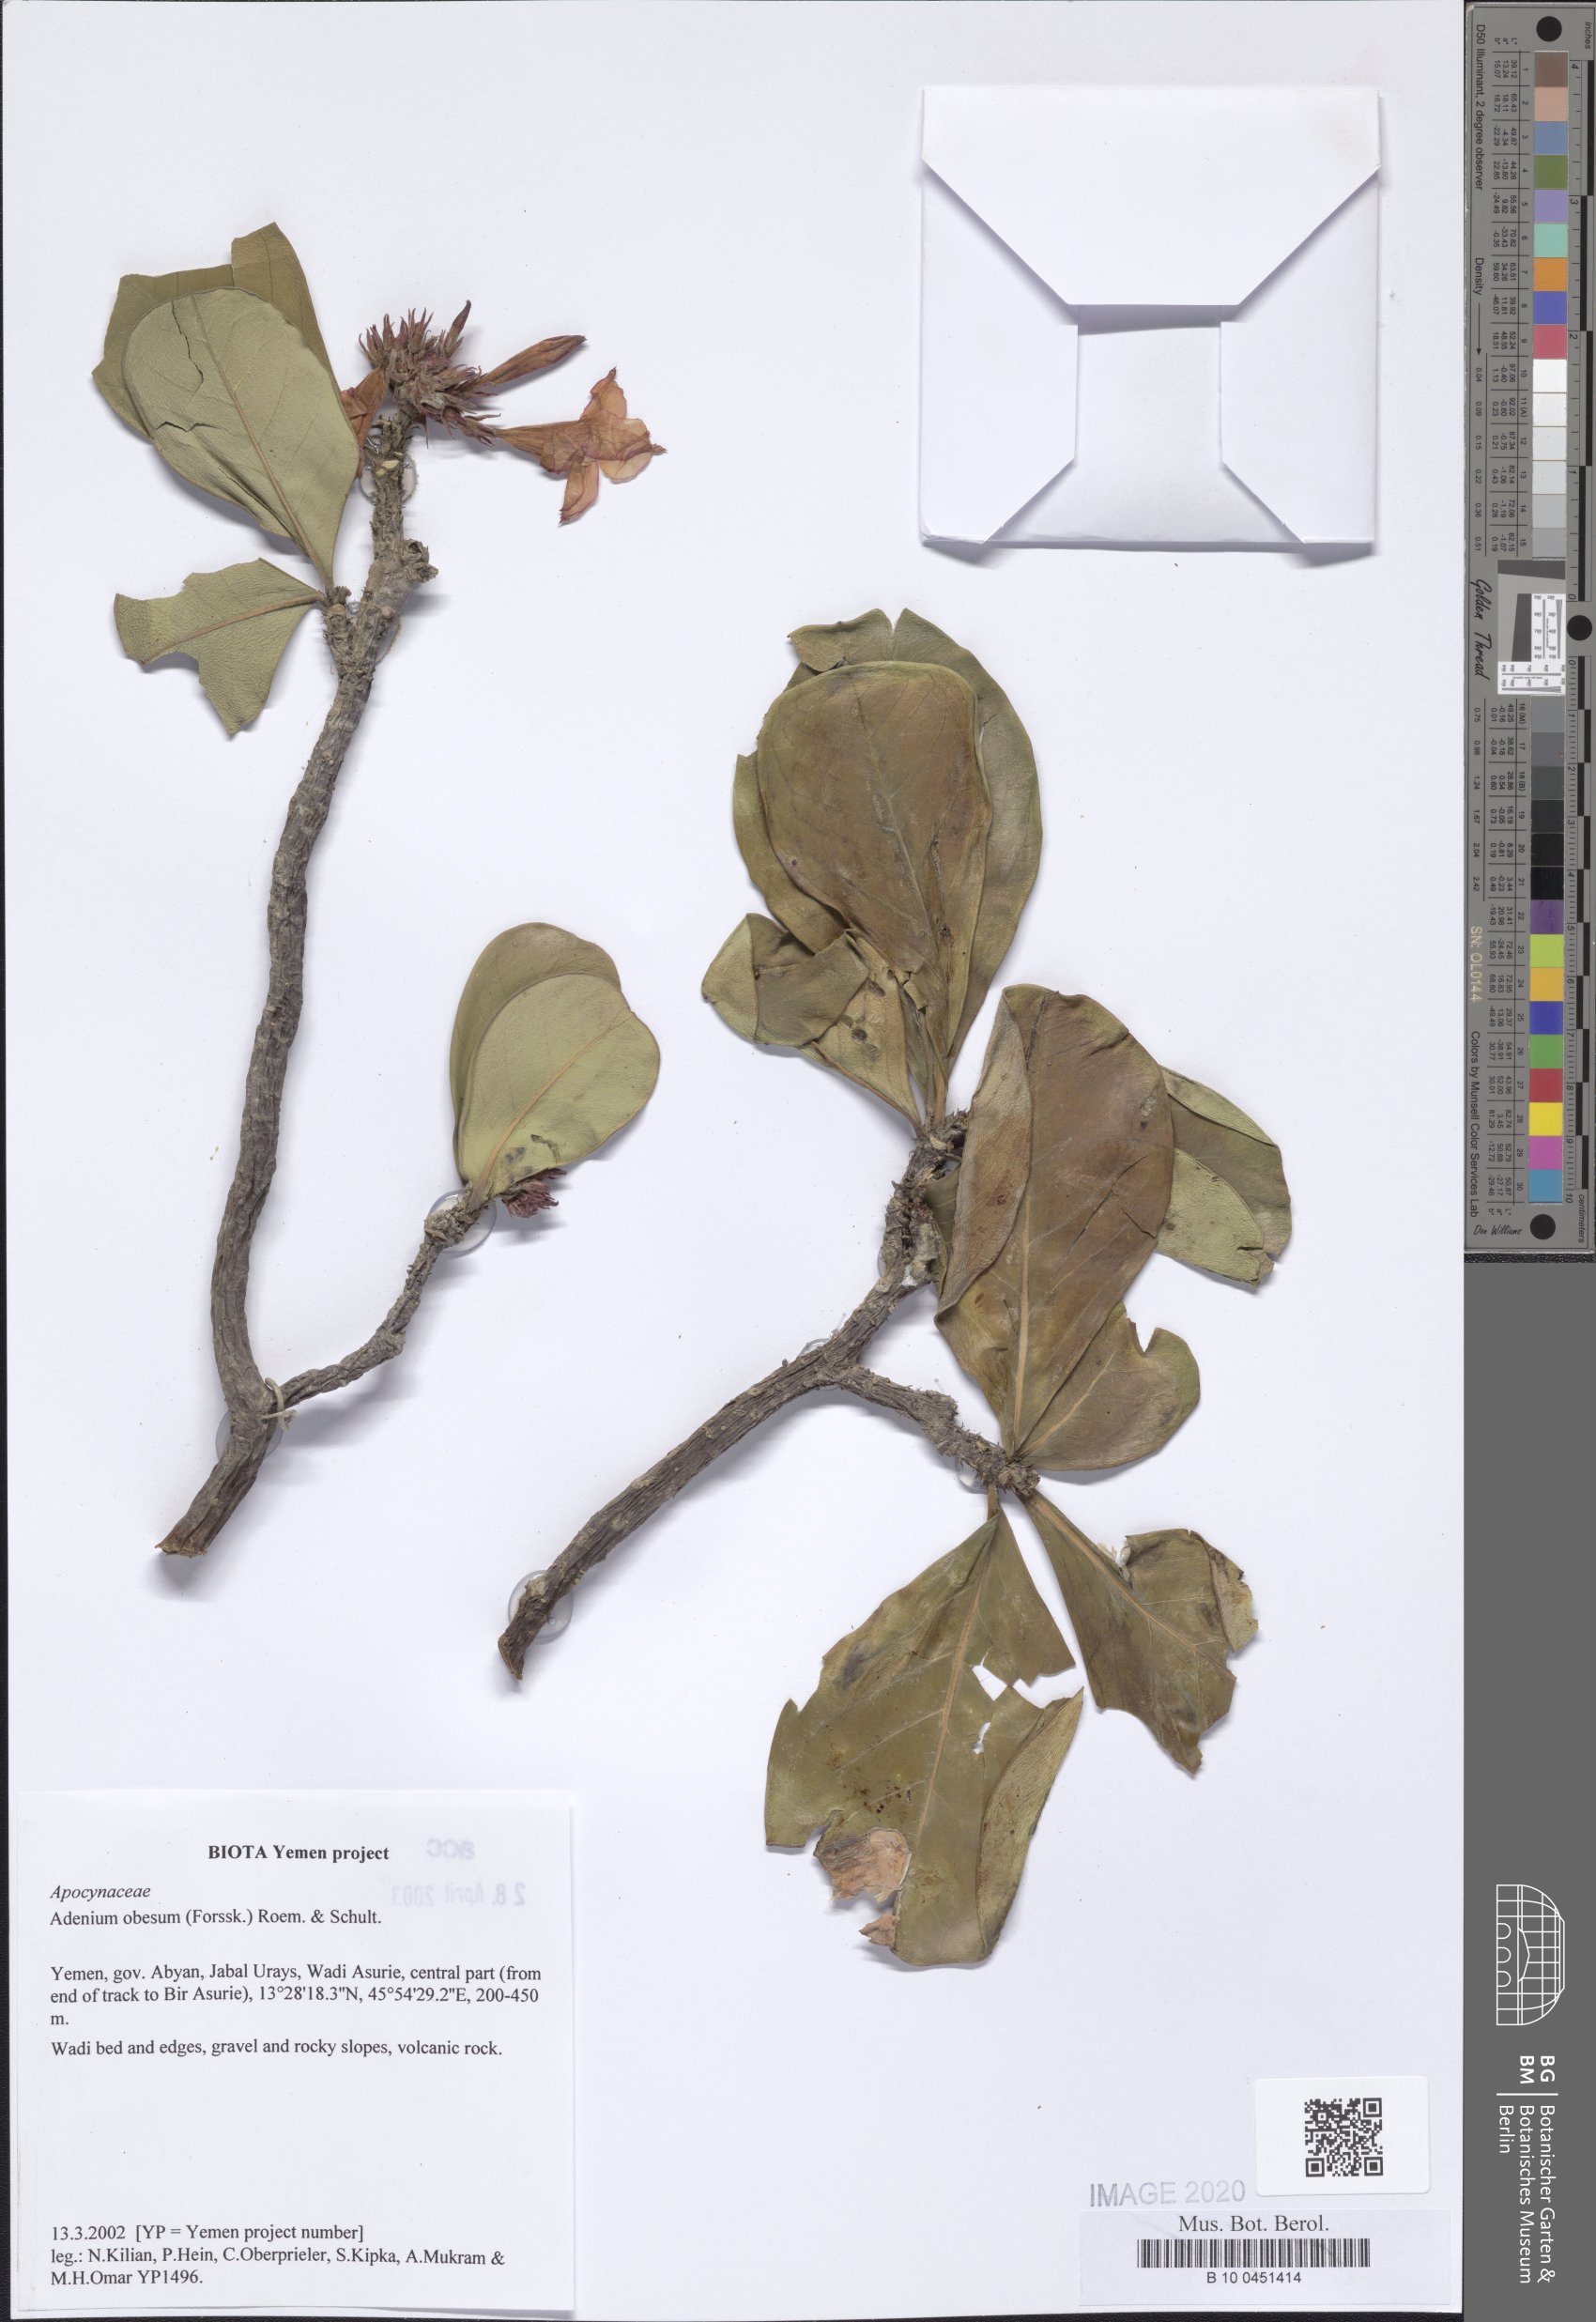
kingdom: Plantae
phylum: Tracheophyta
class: Magnoliopsida
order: Gentianales
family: Apocynaceae
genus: Adenium
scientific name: Adenium obesum
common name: Desert-rose
